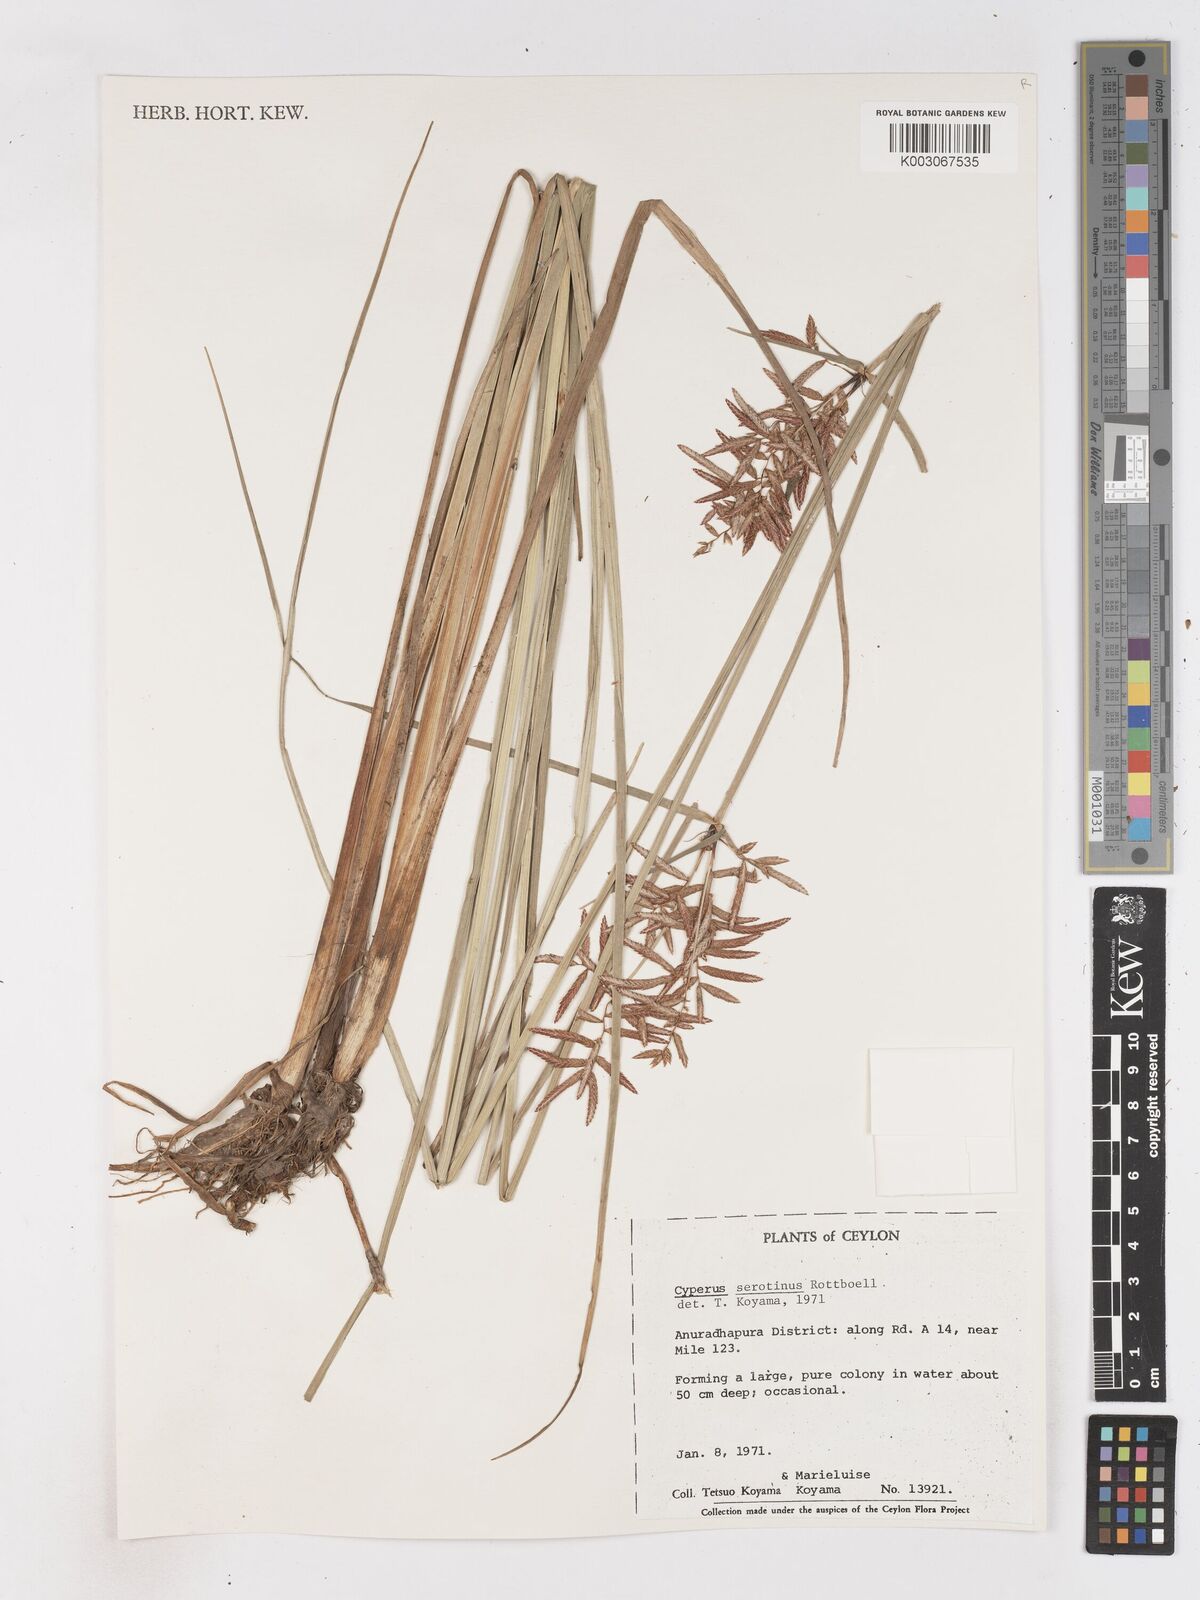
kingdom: Plantae
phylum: Tracheophyta
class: Liliopsida
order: Poales
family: Cyperaceae
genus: Cyperus
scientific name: Cyperus serotinus
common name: Tidalmarsh flatsedge
